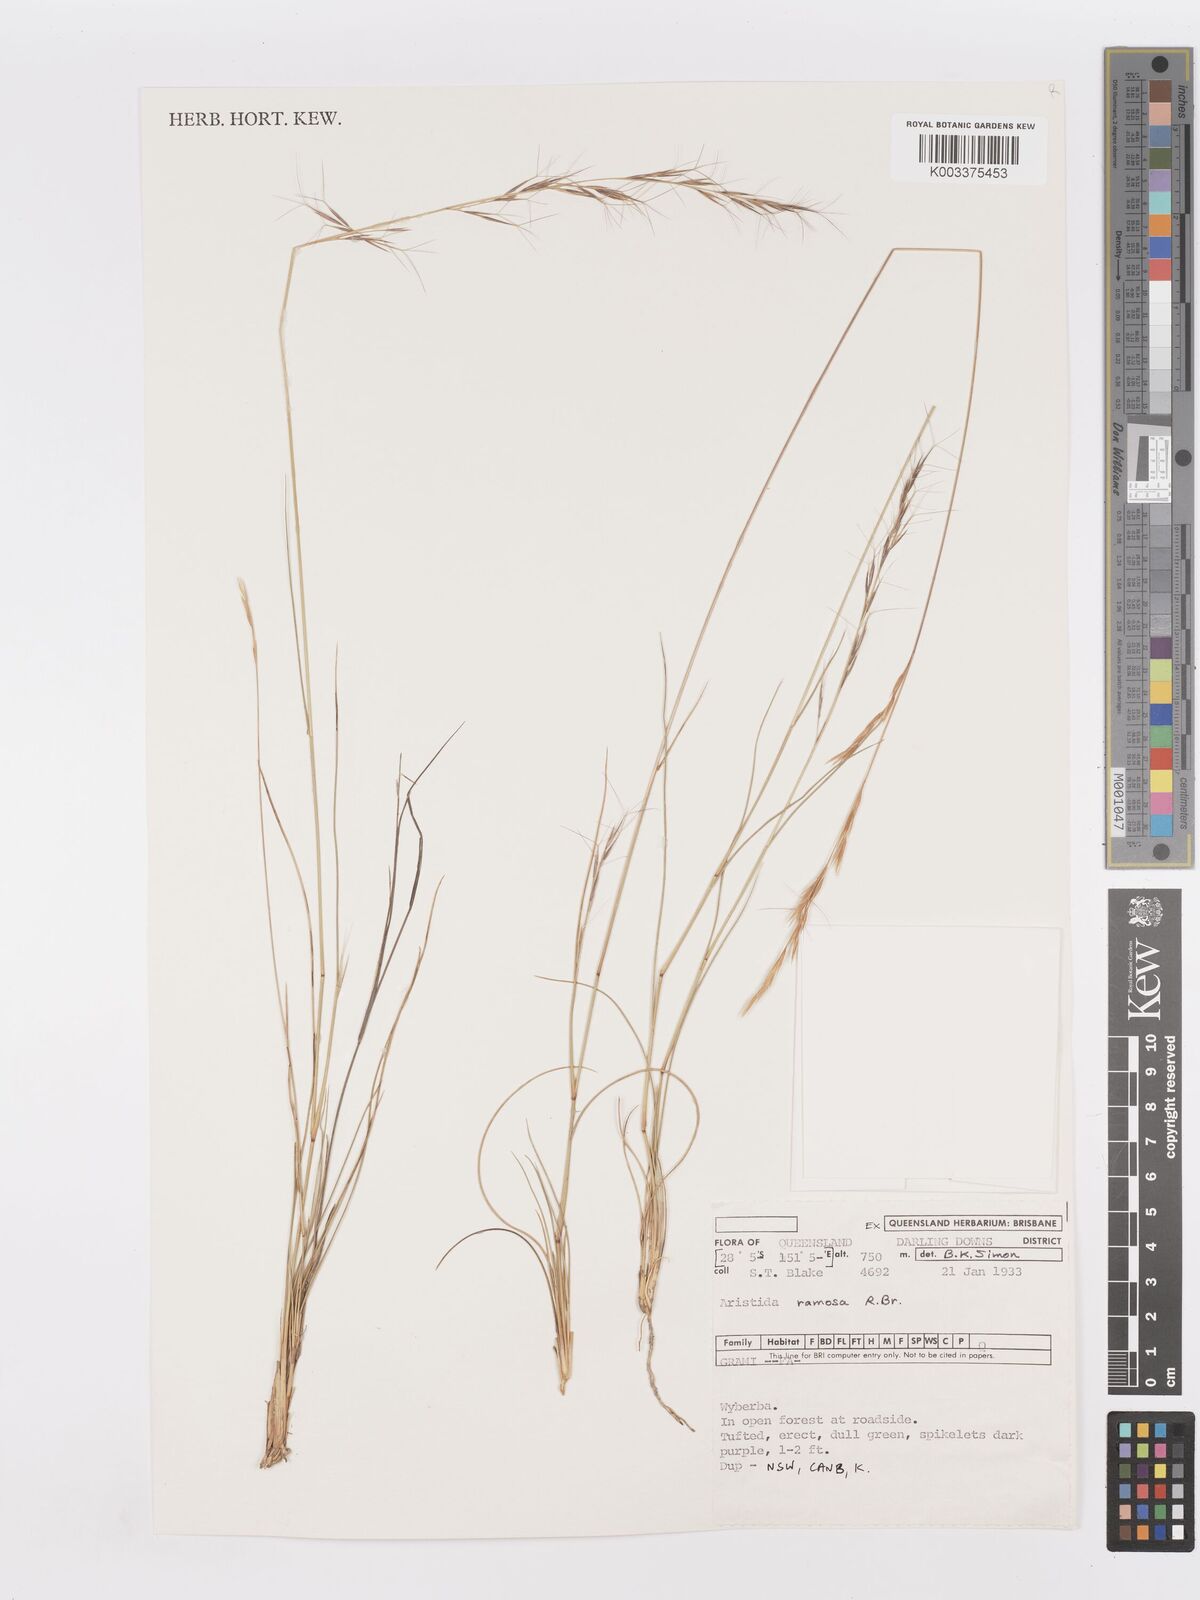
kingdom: Plantae
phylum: Tracheophyta
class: Liliopsida
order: Poales
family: Poaceae
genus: Aristida
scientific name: Aristida ramosa
